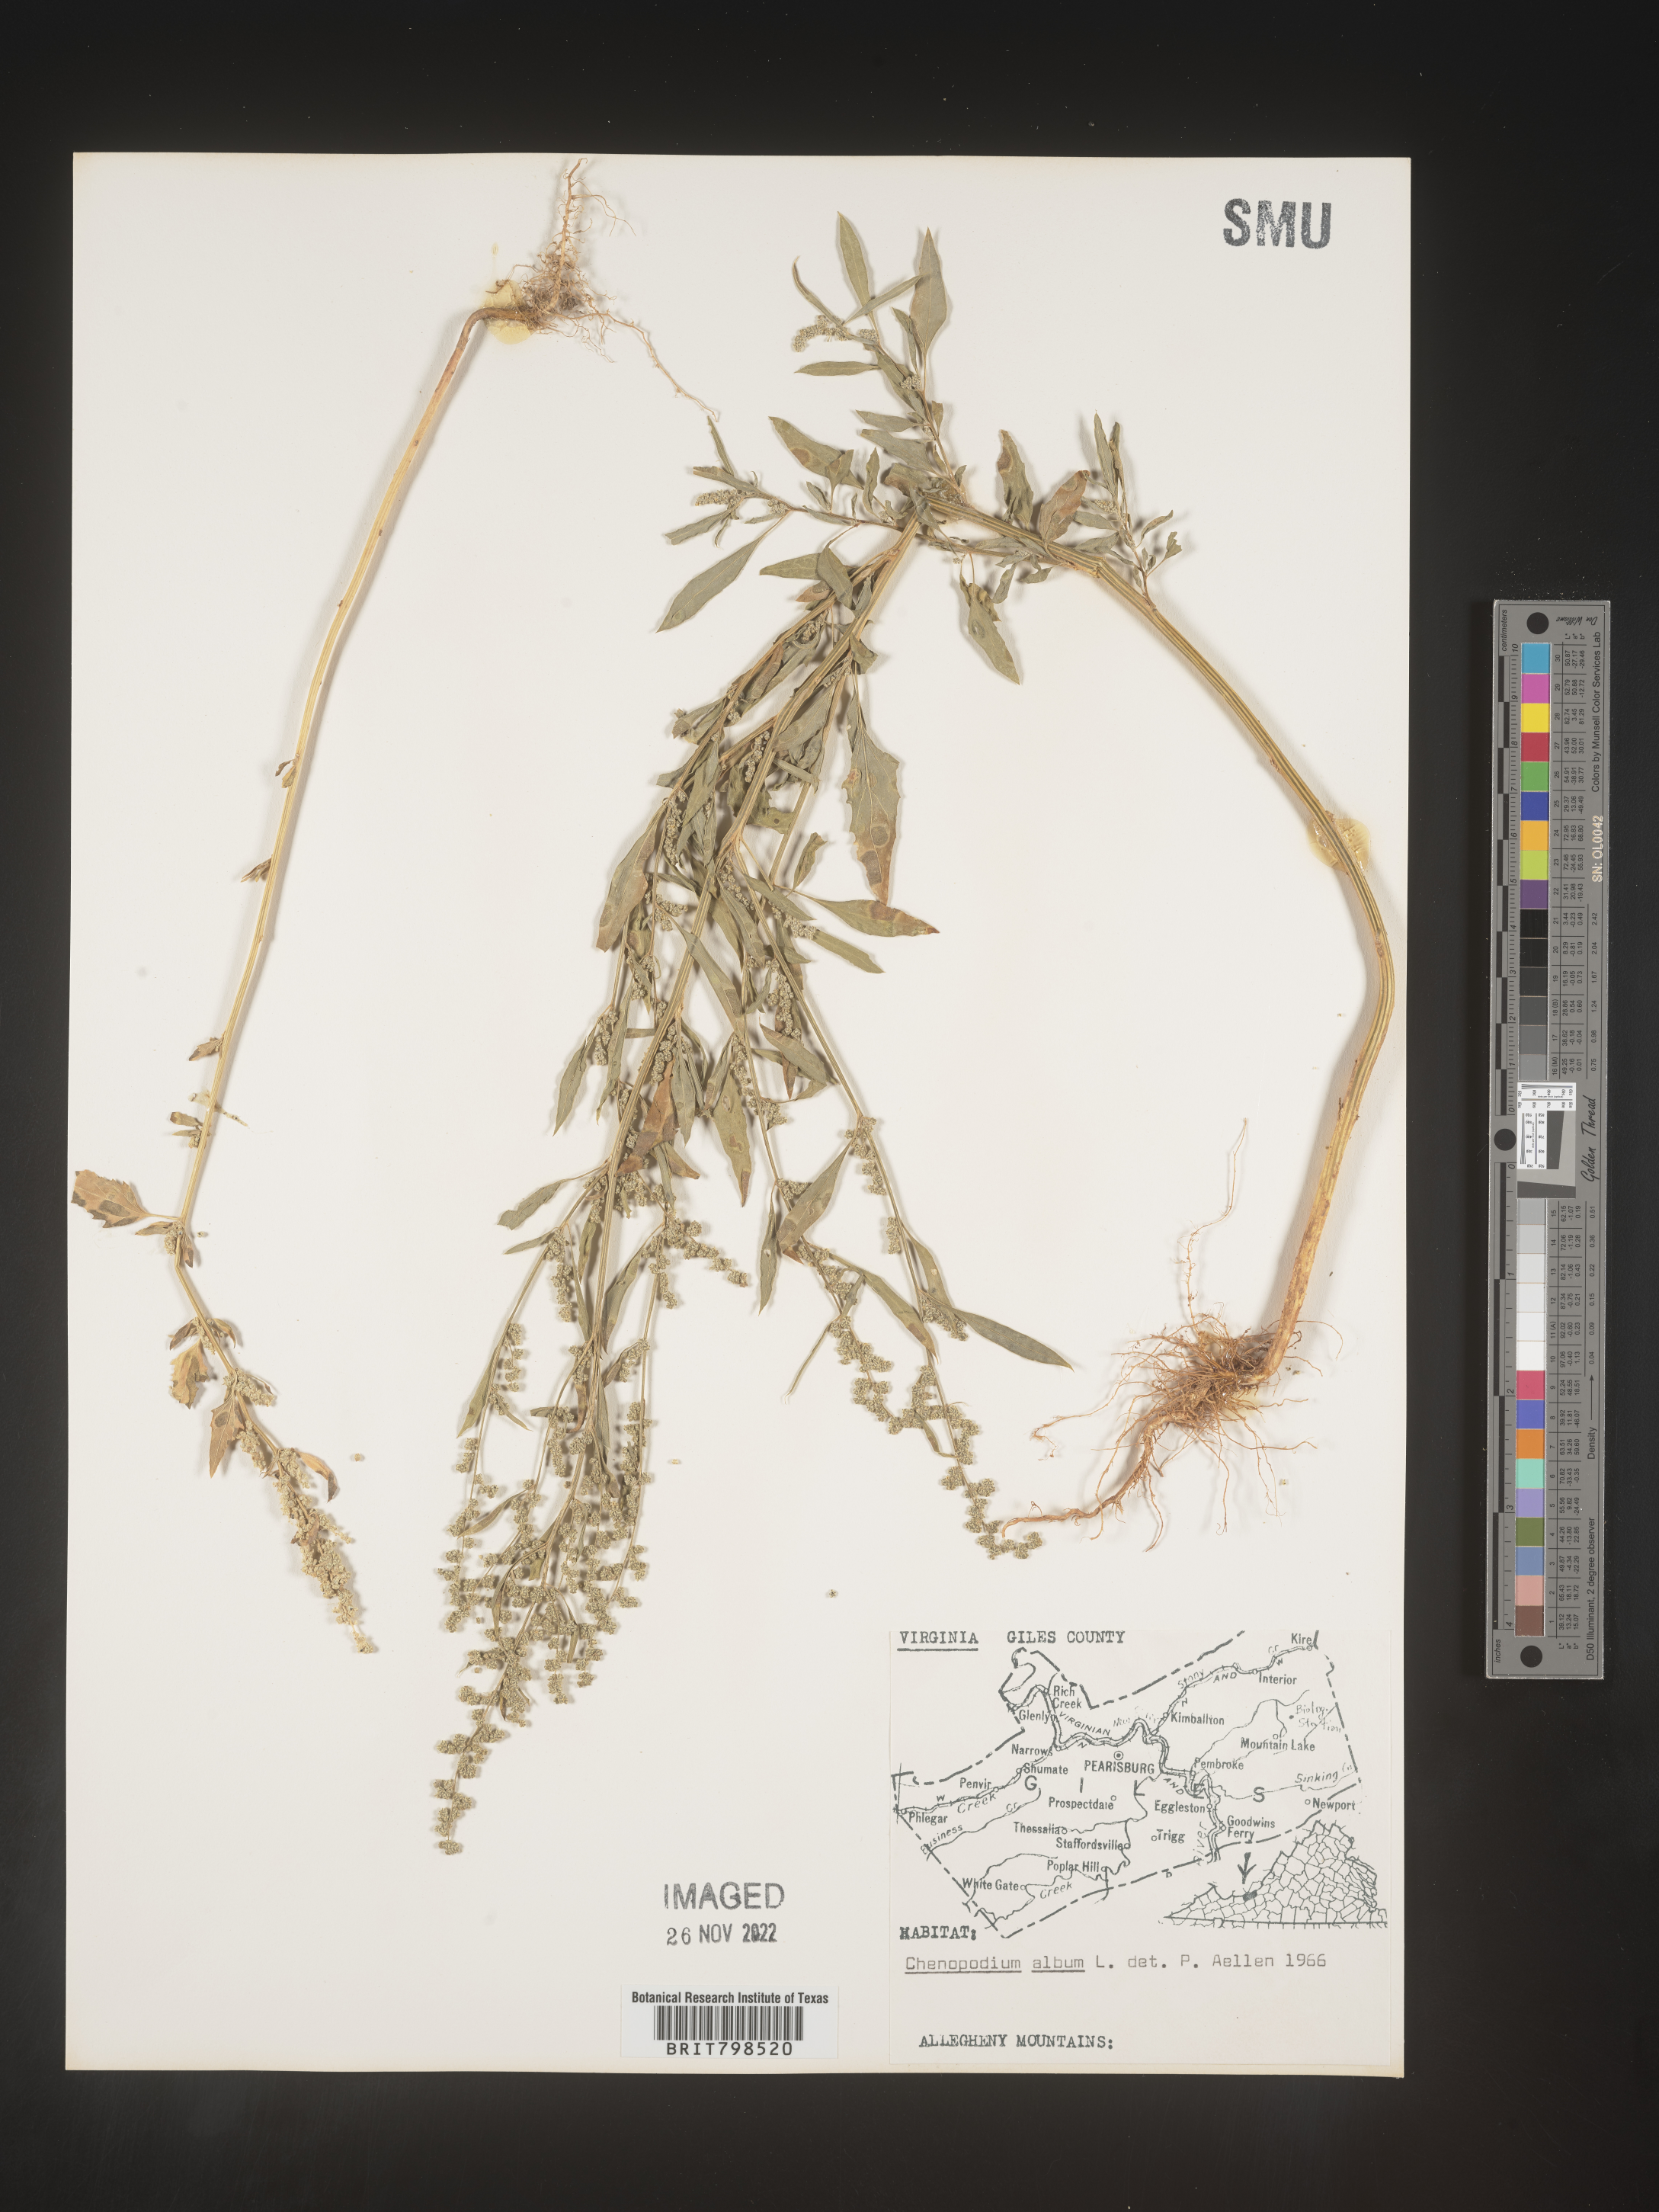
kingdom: Plantae
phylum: Tracheophyta
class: Magnoliopsida
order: Caryophyllales
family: Amaranthaceae
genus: Chenopodium
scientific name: Chenopodium album
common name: Fat-hen
